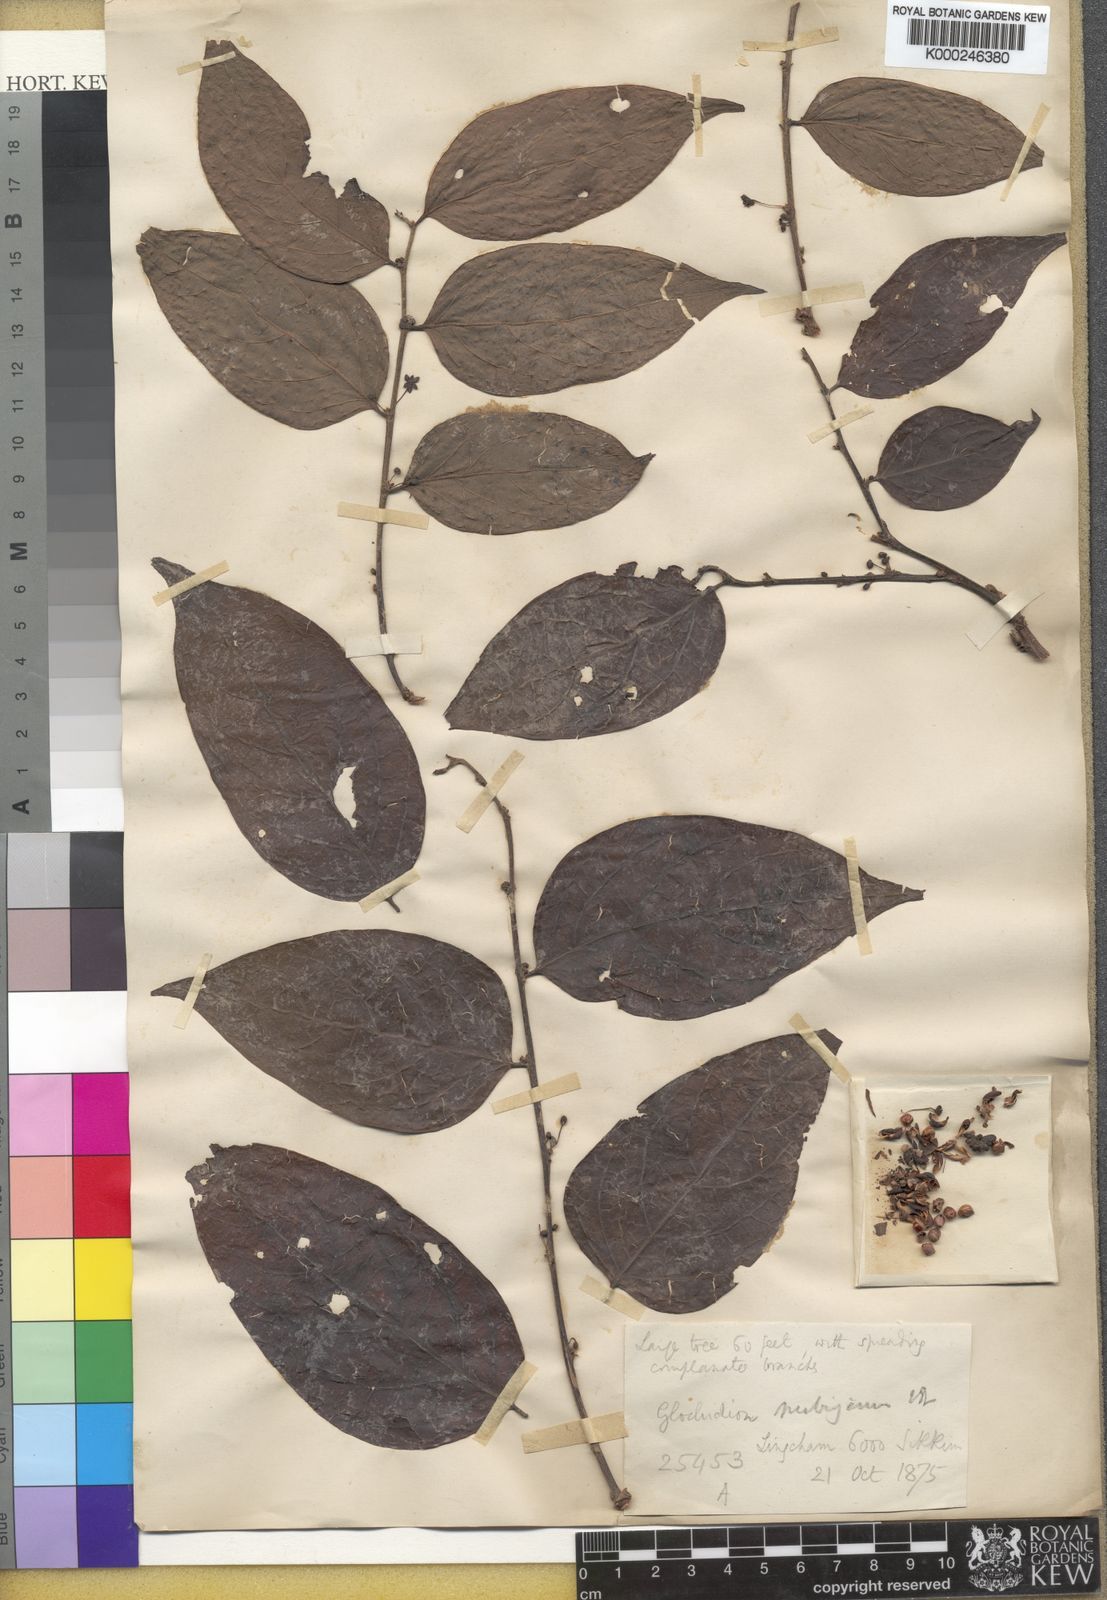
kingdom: Plantae
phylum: Tracheophyta
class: Magnoliopsida
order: Malpighiales
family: Phyllanthaceae
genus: Glochidion
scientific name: Glochidion nubigenum
